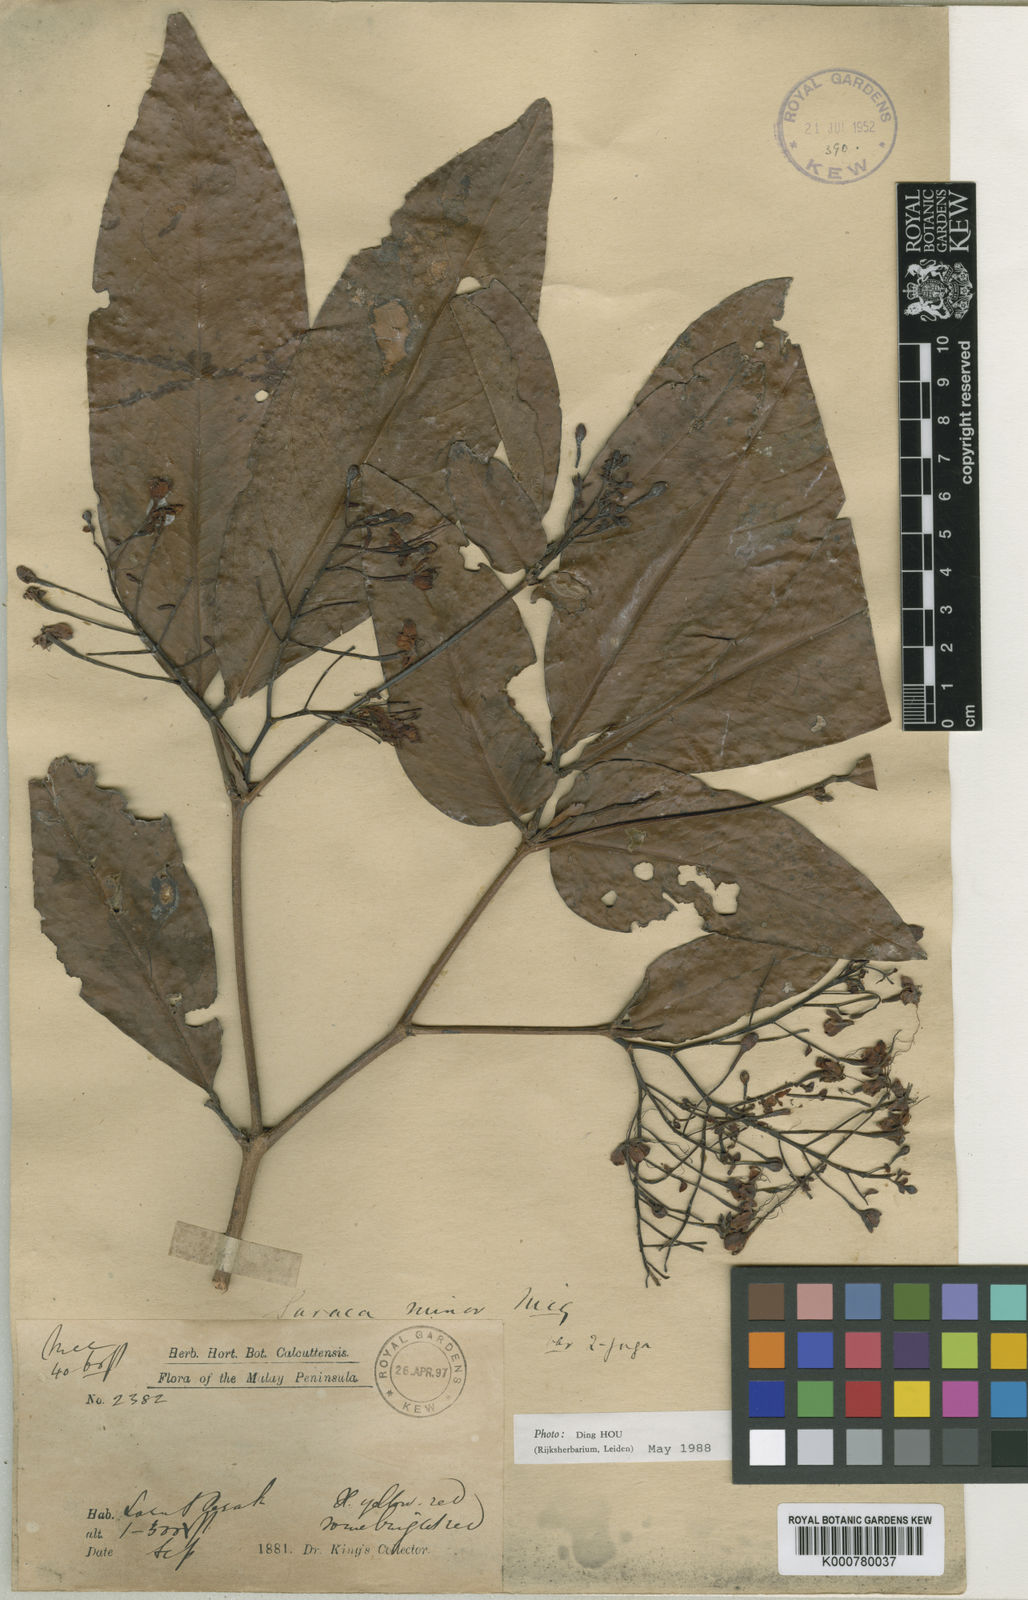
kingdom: Plantae
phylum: Tracheophyta
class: Magnoliopsida
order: Fabales
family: Fabaceae
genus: Saraca
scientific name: Saraca indica
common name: Asoka-tree
